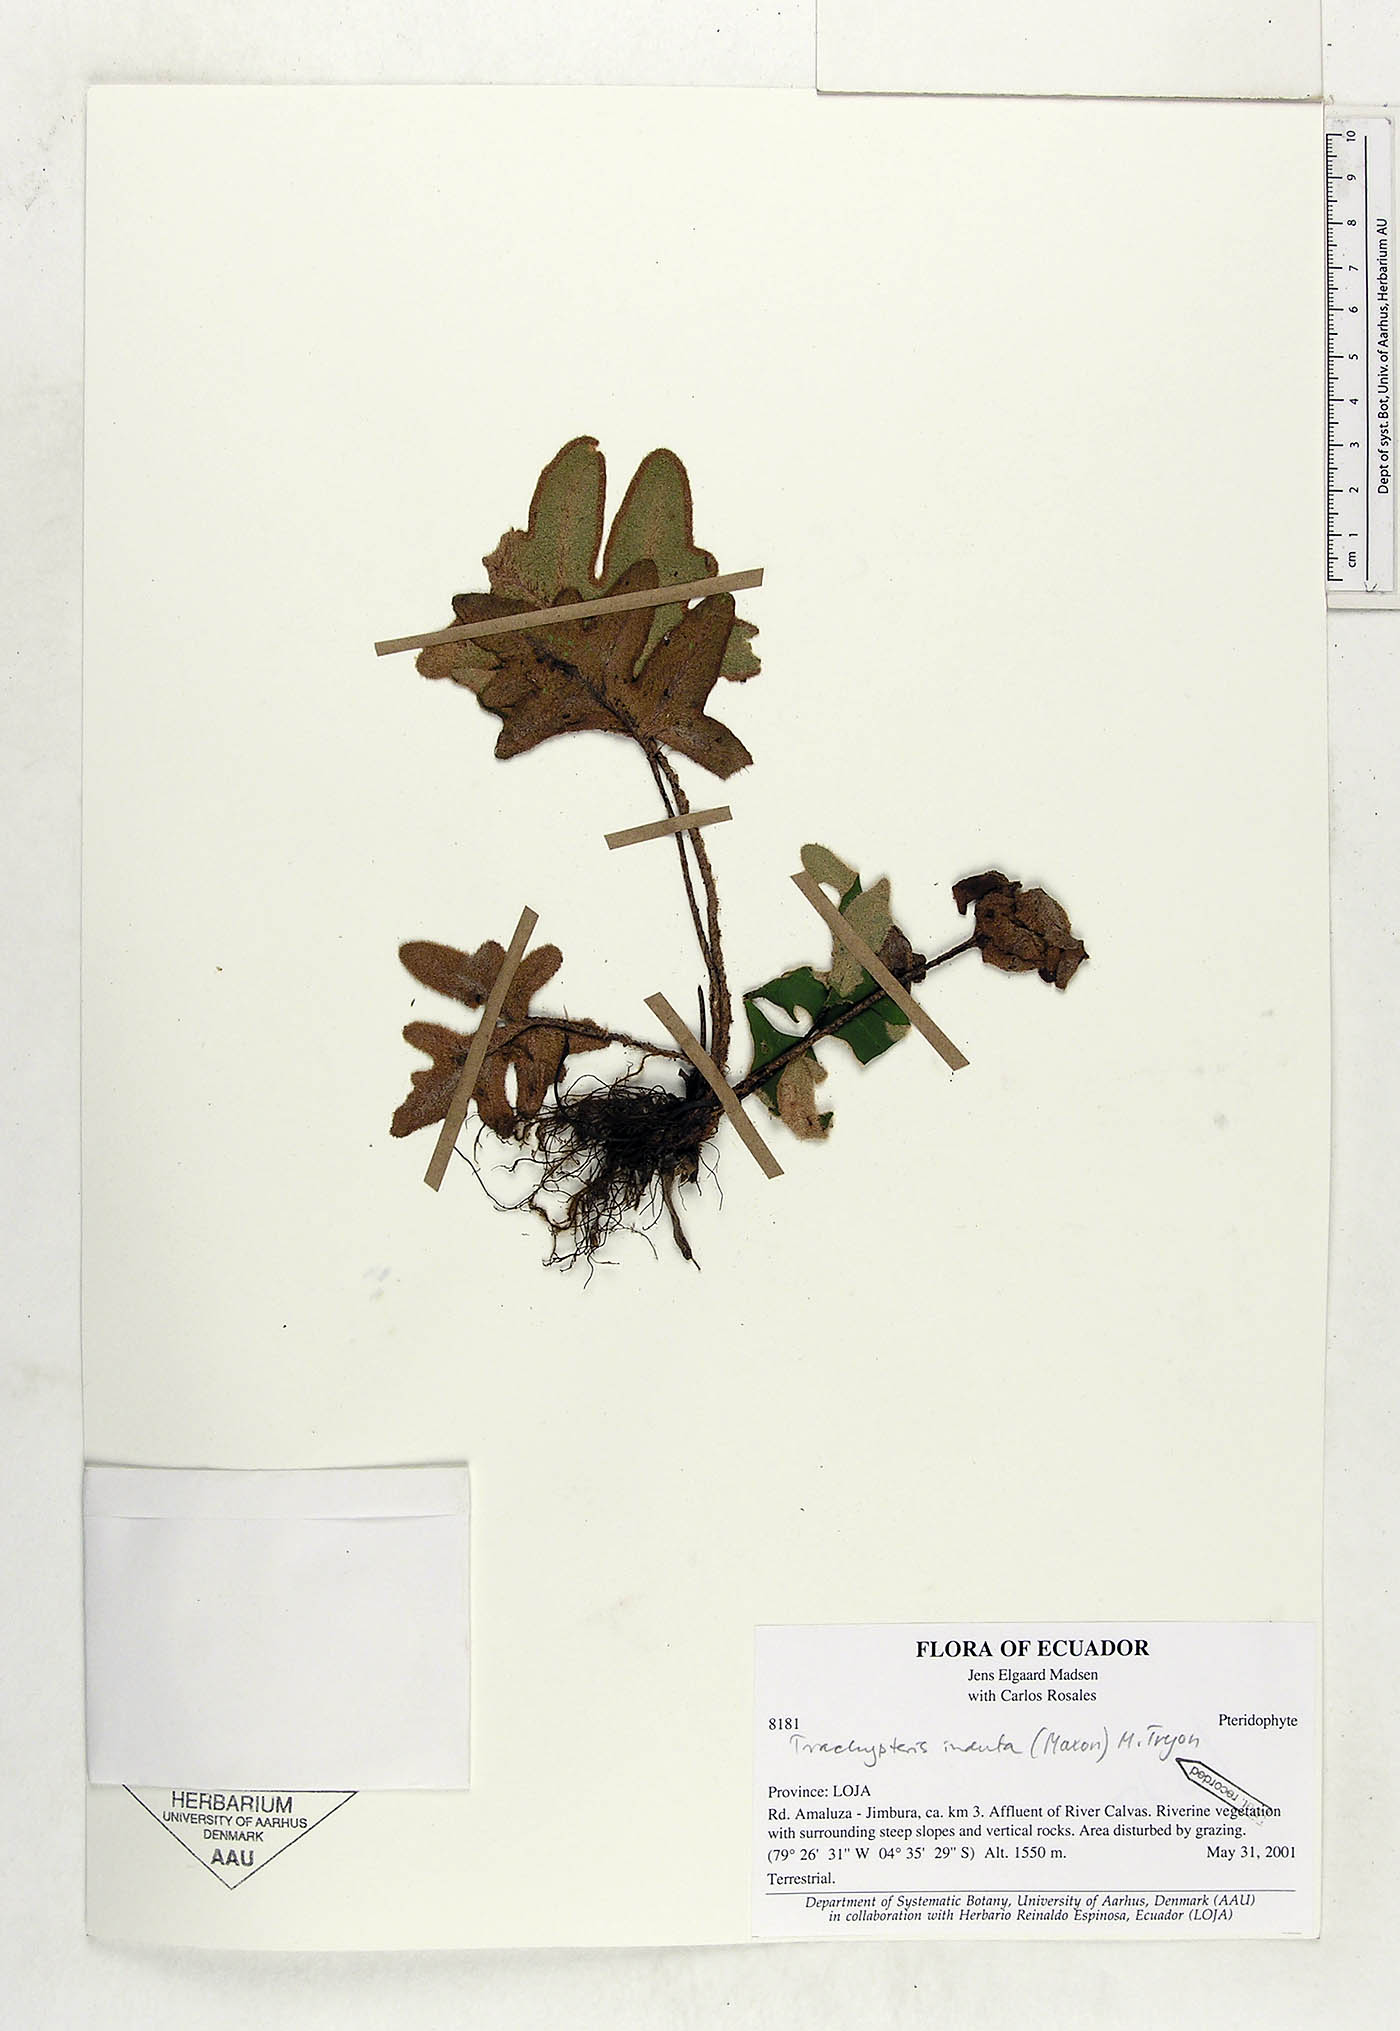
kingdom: Plantae
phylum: Tracheophyta
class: Polypodiopsida
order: Polypodiales
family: Pteridaceae
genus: Trachypteris
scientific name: Trachypteris induta
